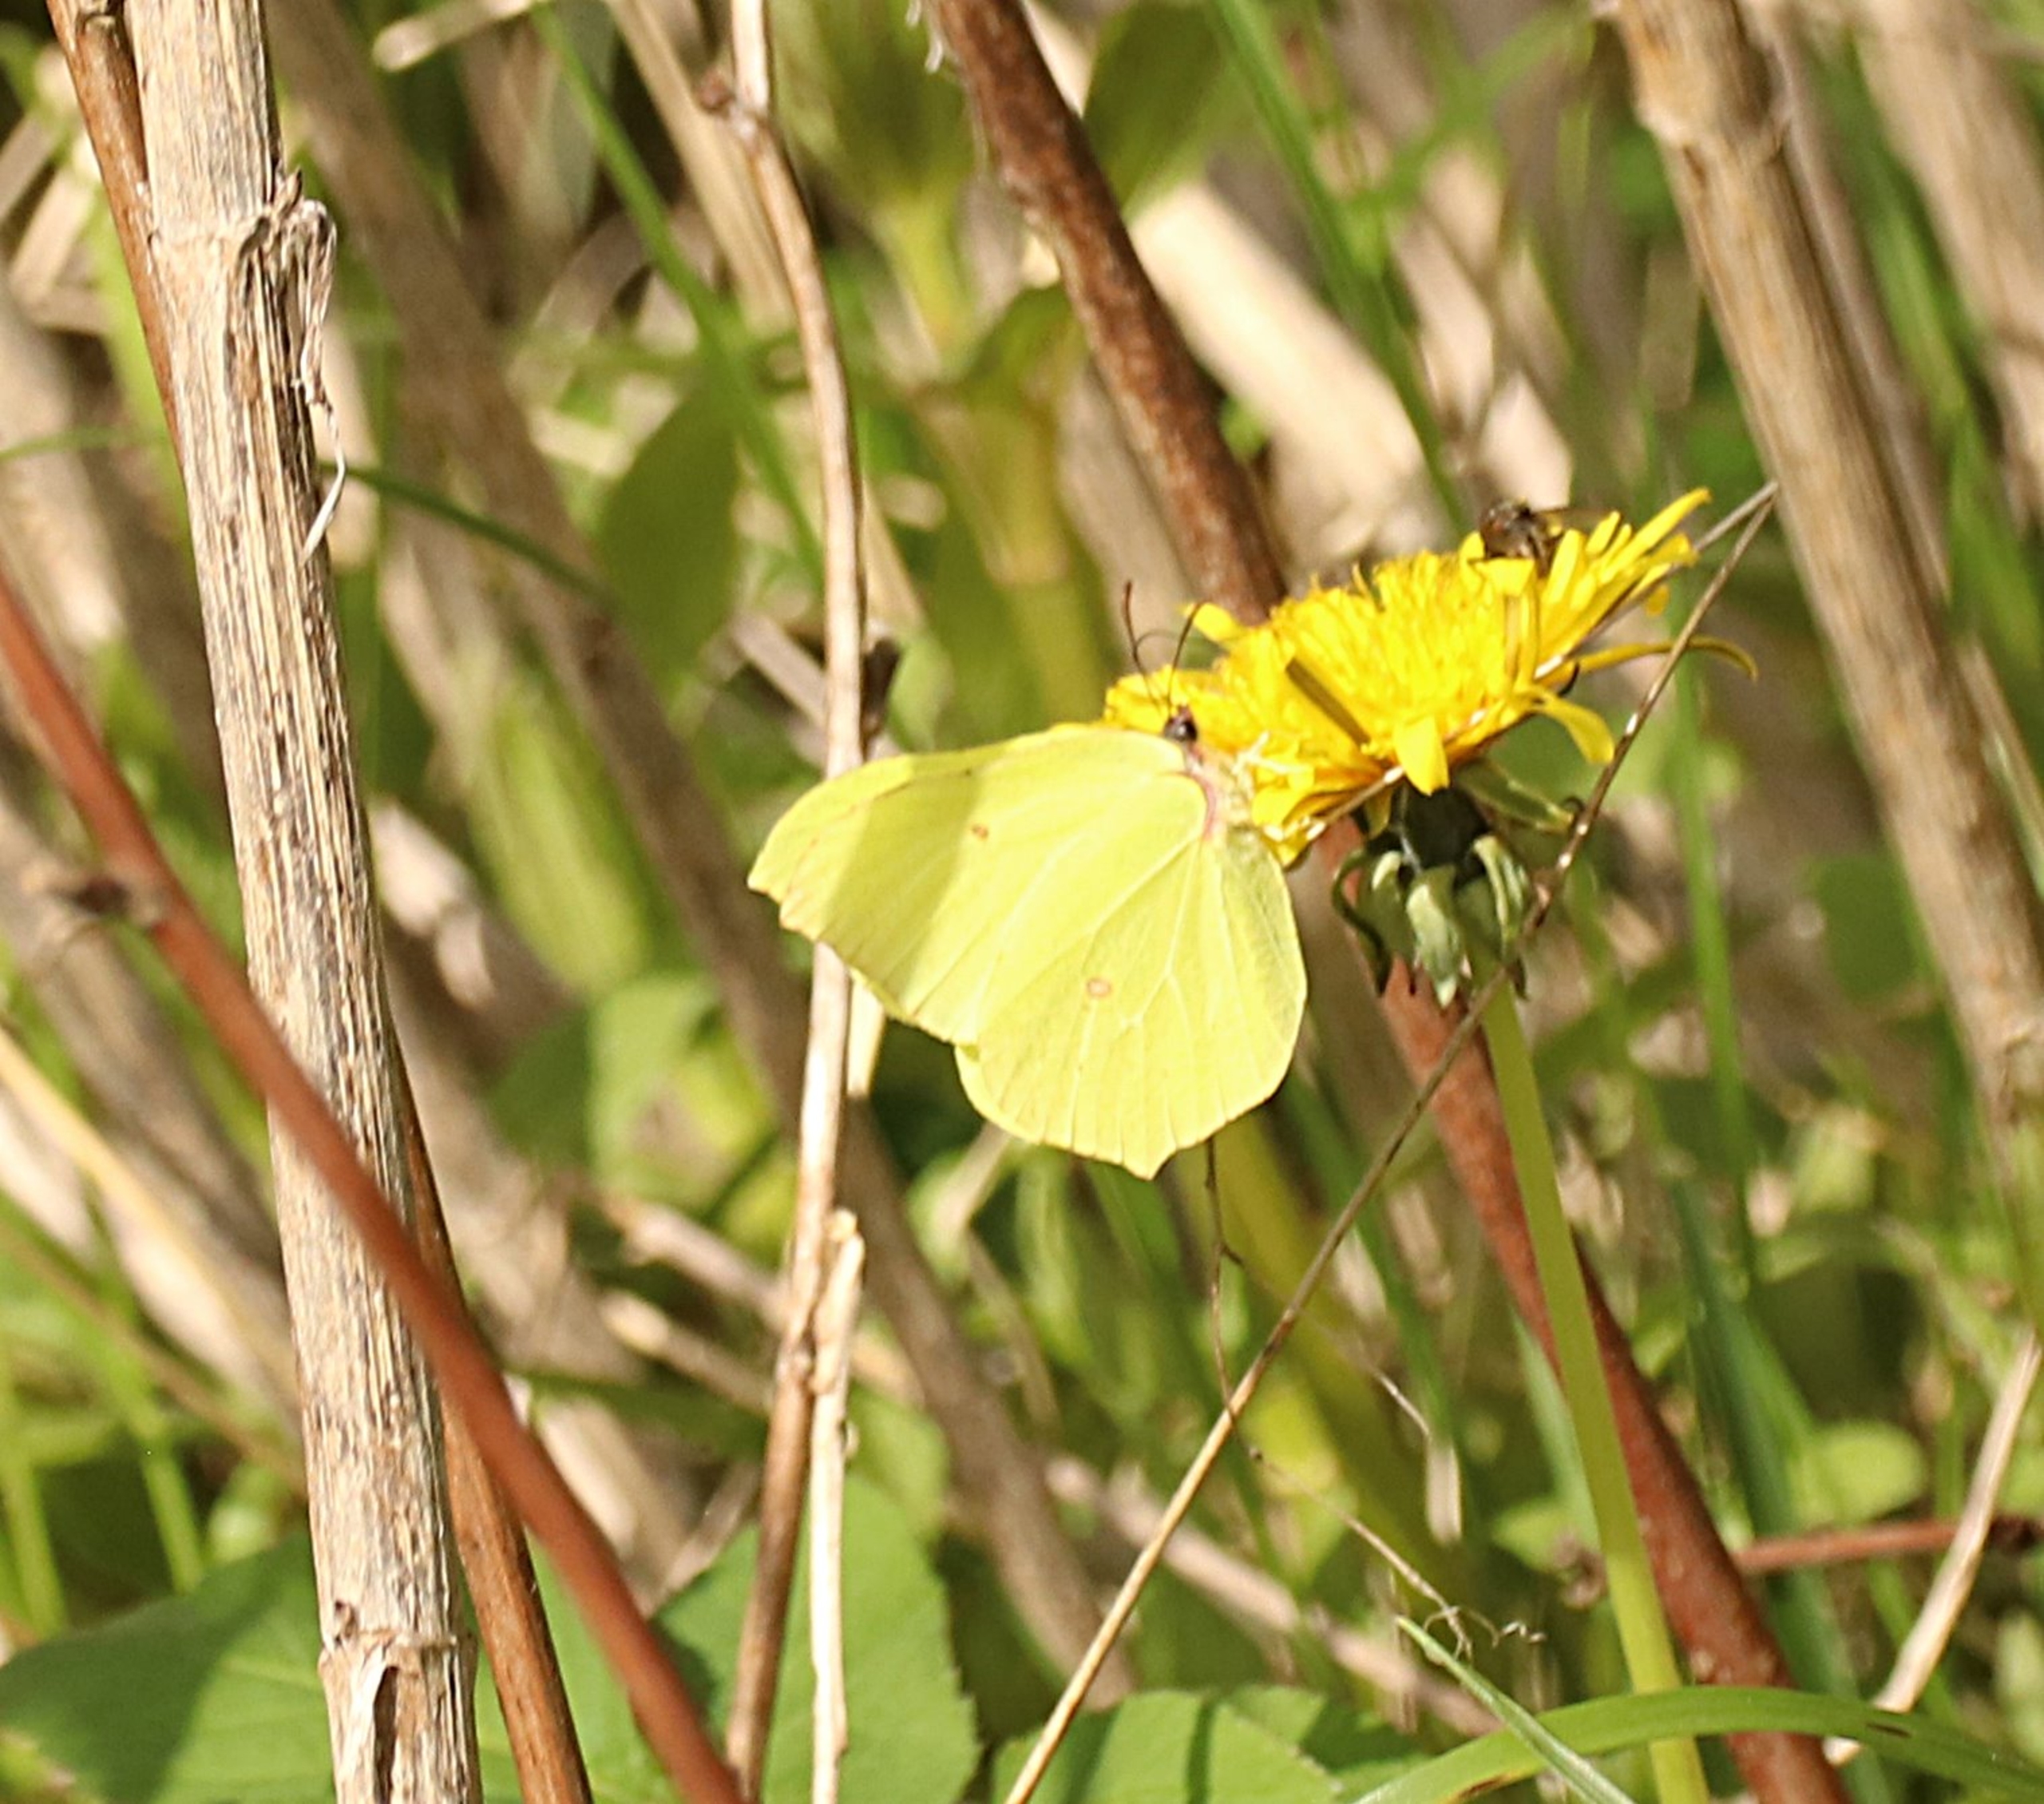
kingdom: Animalia
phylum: Arthropoda
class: Insecta
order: Lepidoptera
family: Pieridae
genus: Gonepteryx
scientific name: Gonepteryx rhamni
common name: Citronsommerfugl
